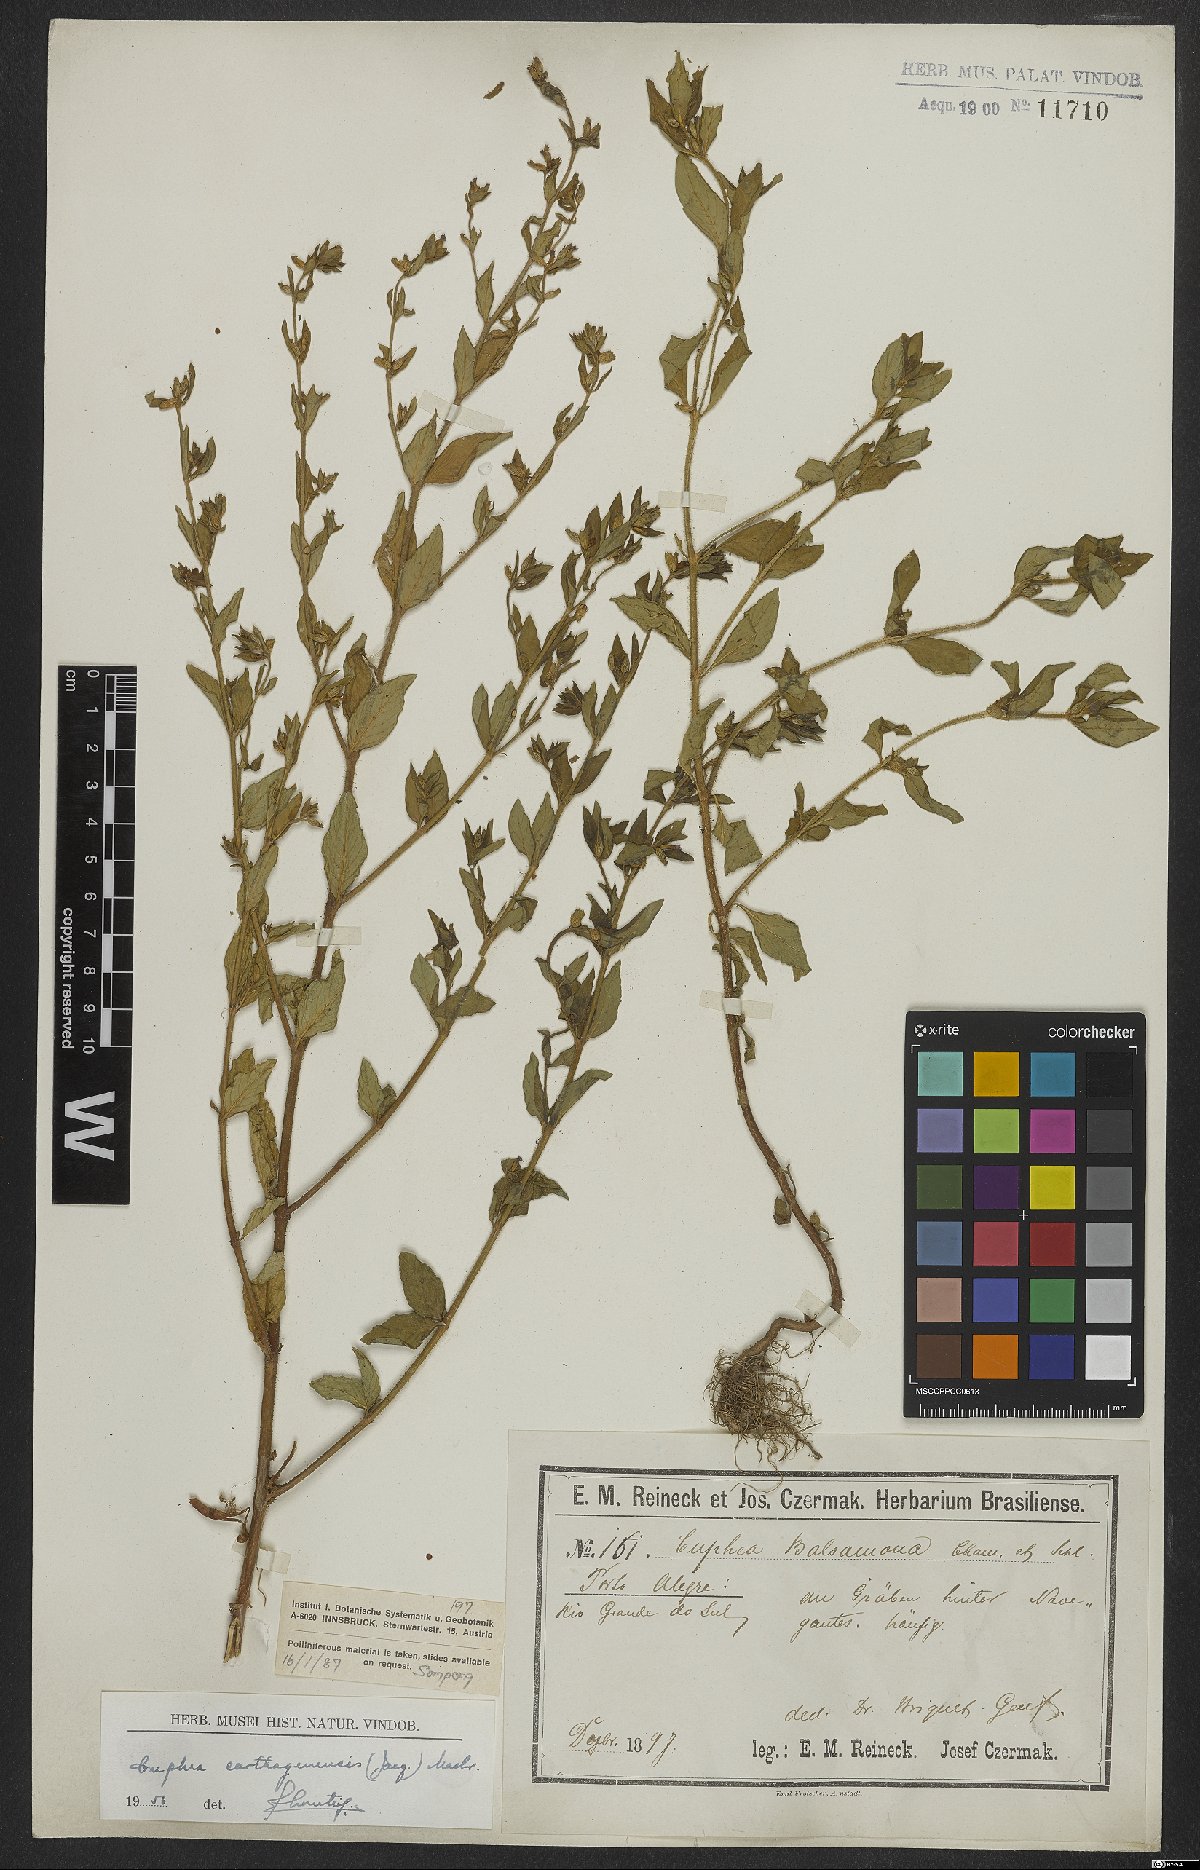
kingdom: Plantae
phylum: Tracheophyta
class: Magnoliopsida
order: Myrtales
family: Lythraceae
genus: Cuphea
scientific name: Cuphea carthagenensis
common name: Colombian waxweed
